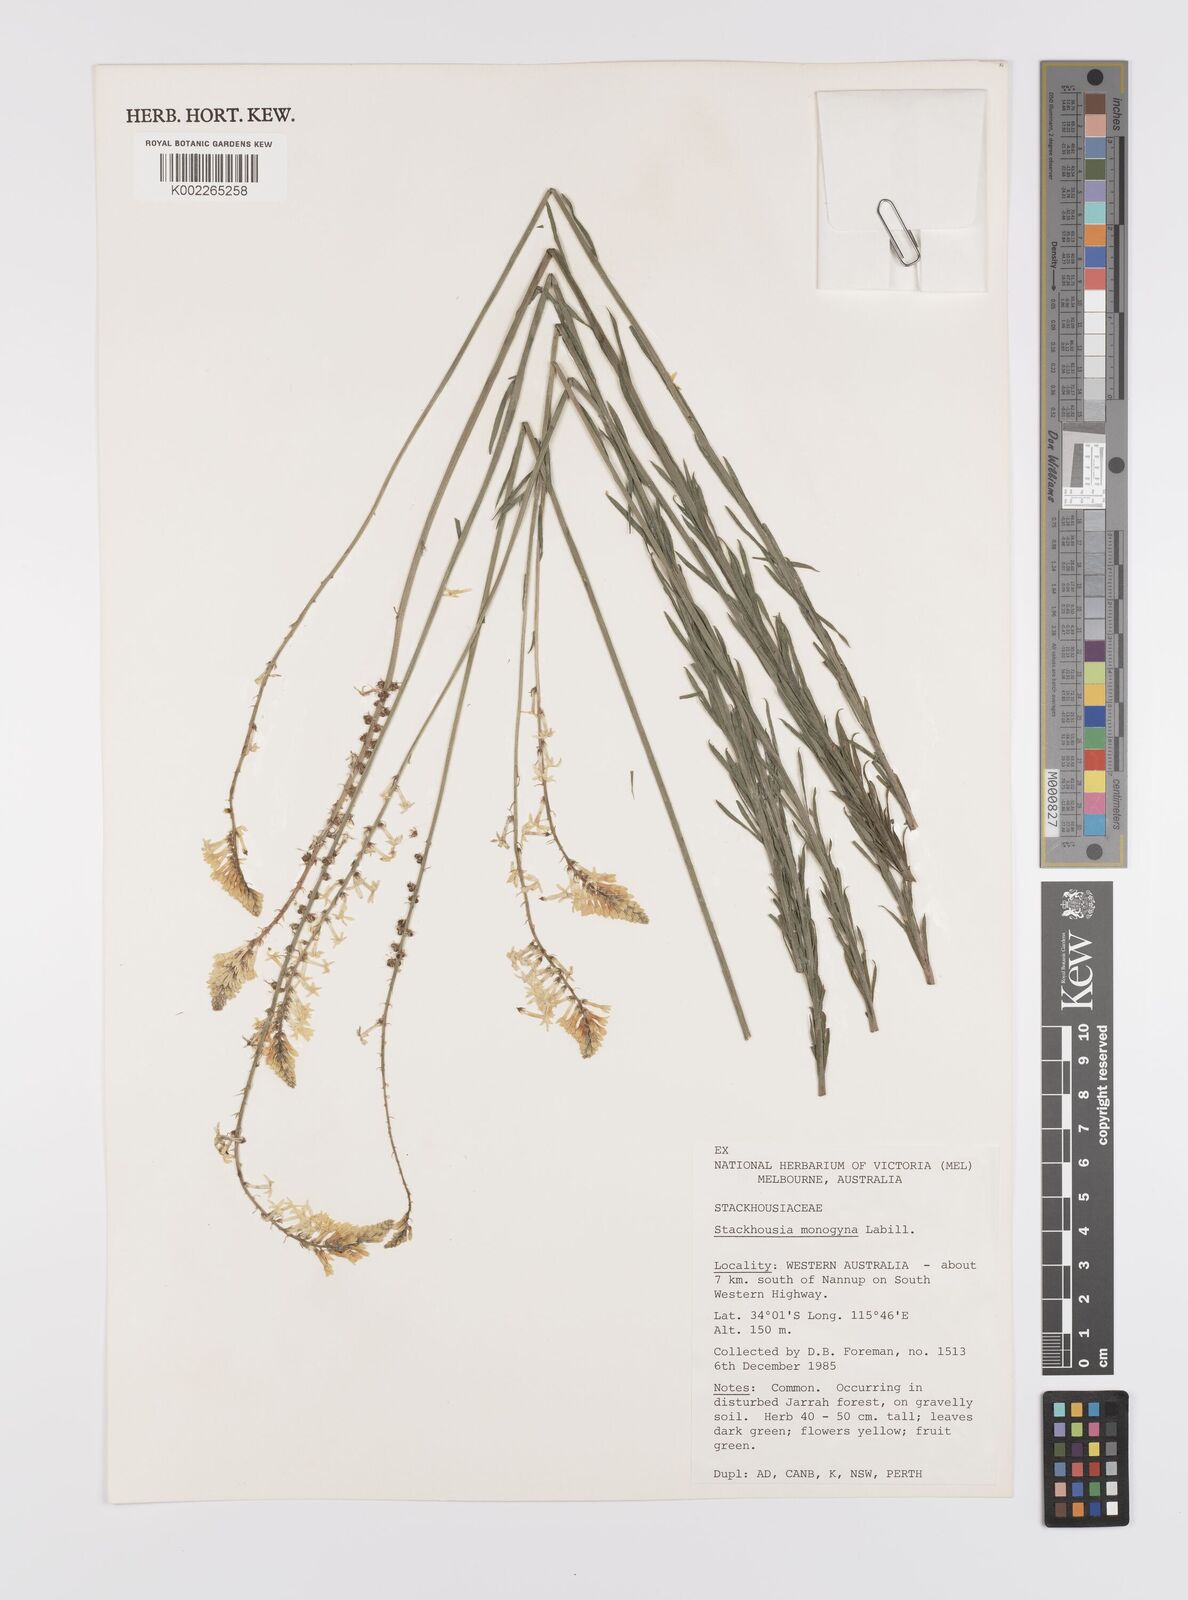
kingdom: Plantae
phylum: Tracheophyta
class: Magnoliopsida
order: Celastrales
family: Celastraceae
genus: Stackhousia
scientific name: Stackhousia monogyna
